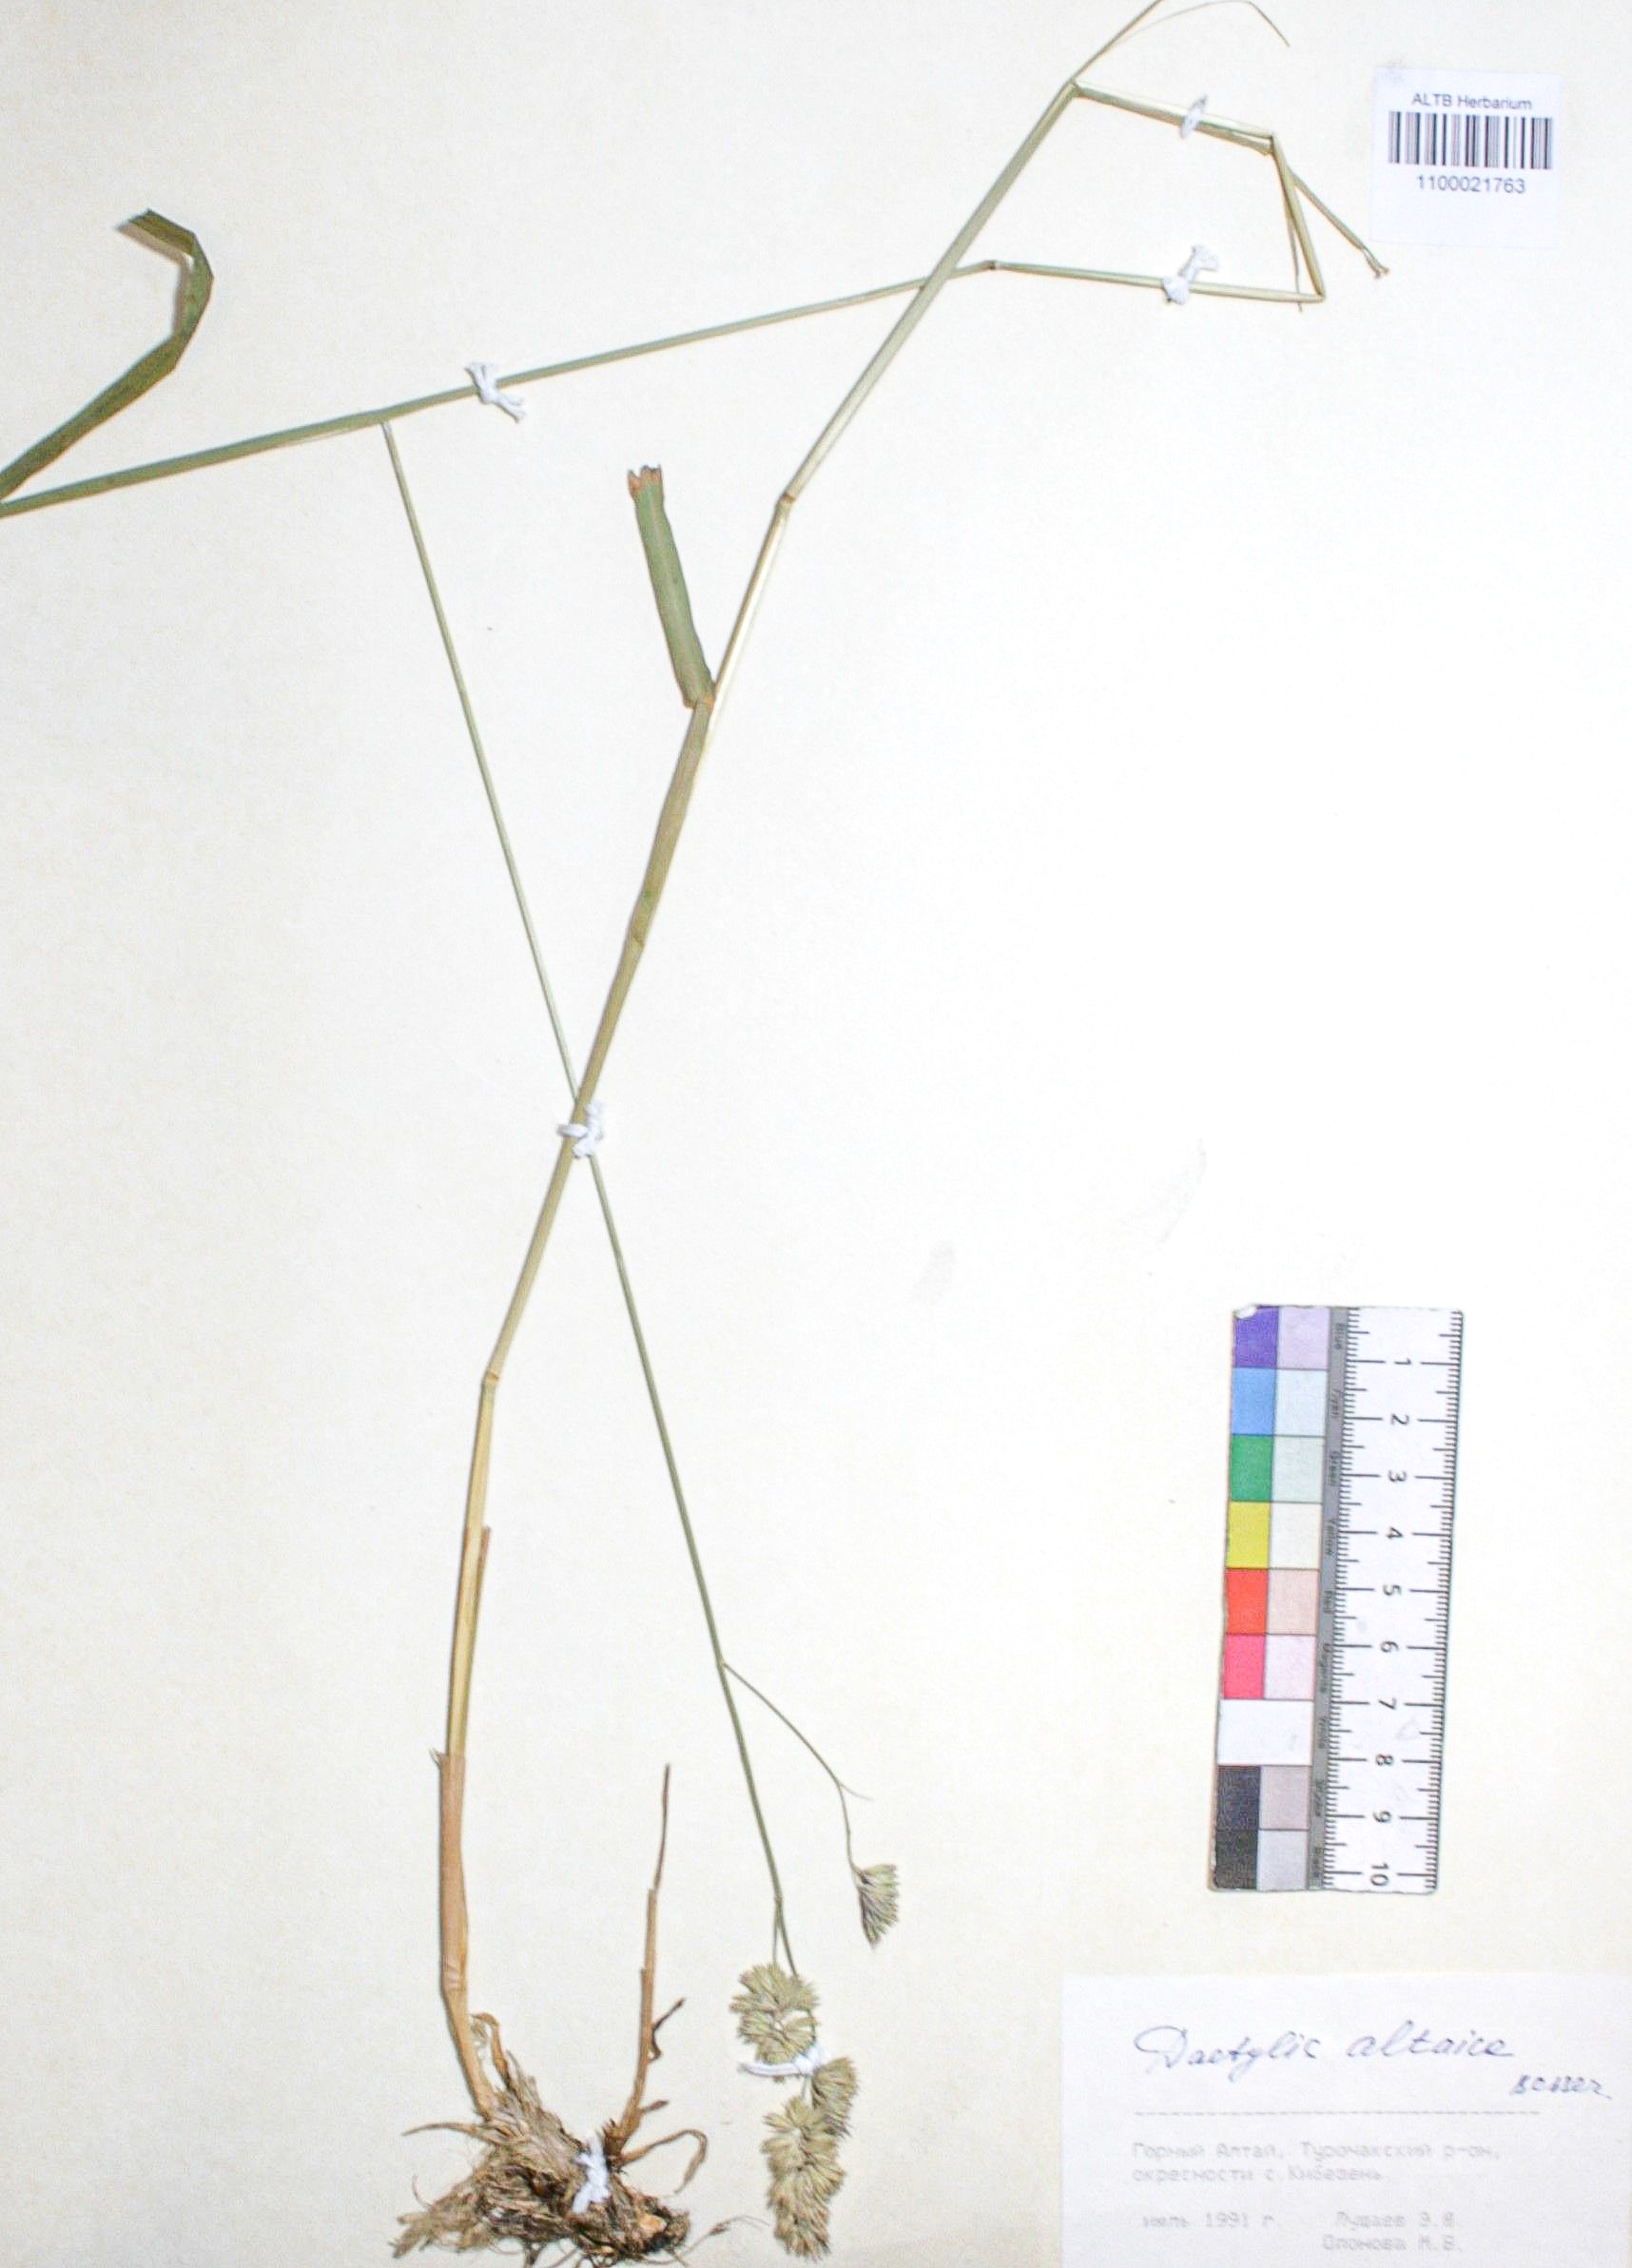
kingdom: Plantae
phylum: Tracheophyta
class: Liliopsida
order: Poales
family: Poaceae
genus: Dactylis
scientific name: Dactylis glomerata
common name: Orchardgrass
